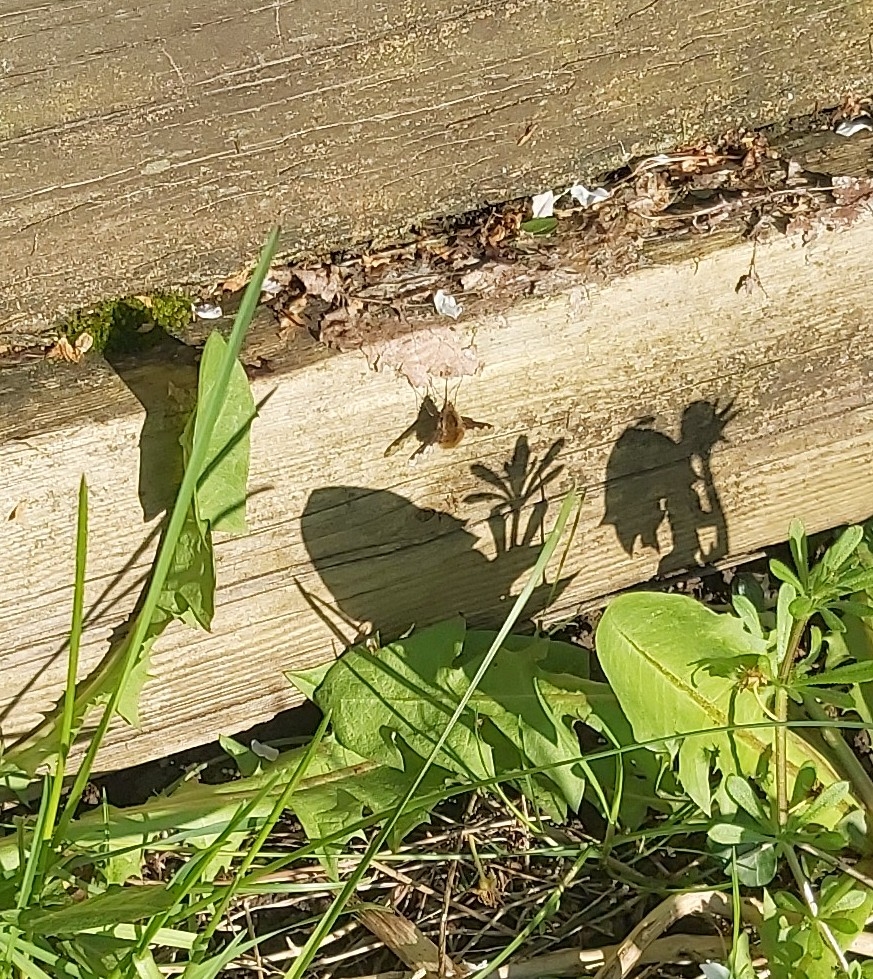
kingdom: Animalia
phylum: Arthropoda
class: Insecta
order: Diptera
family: Bombyliidae
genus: Bombylius
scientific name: Bombylius major
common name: Stor humleflue
